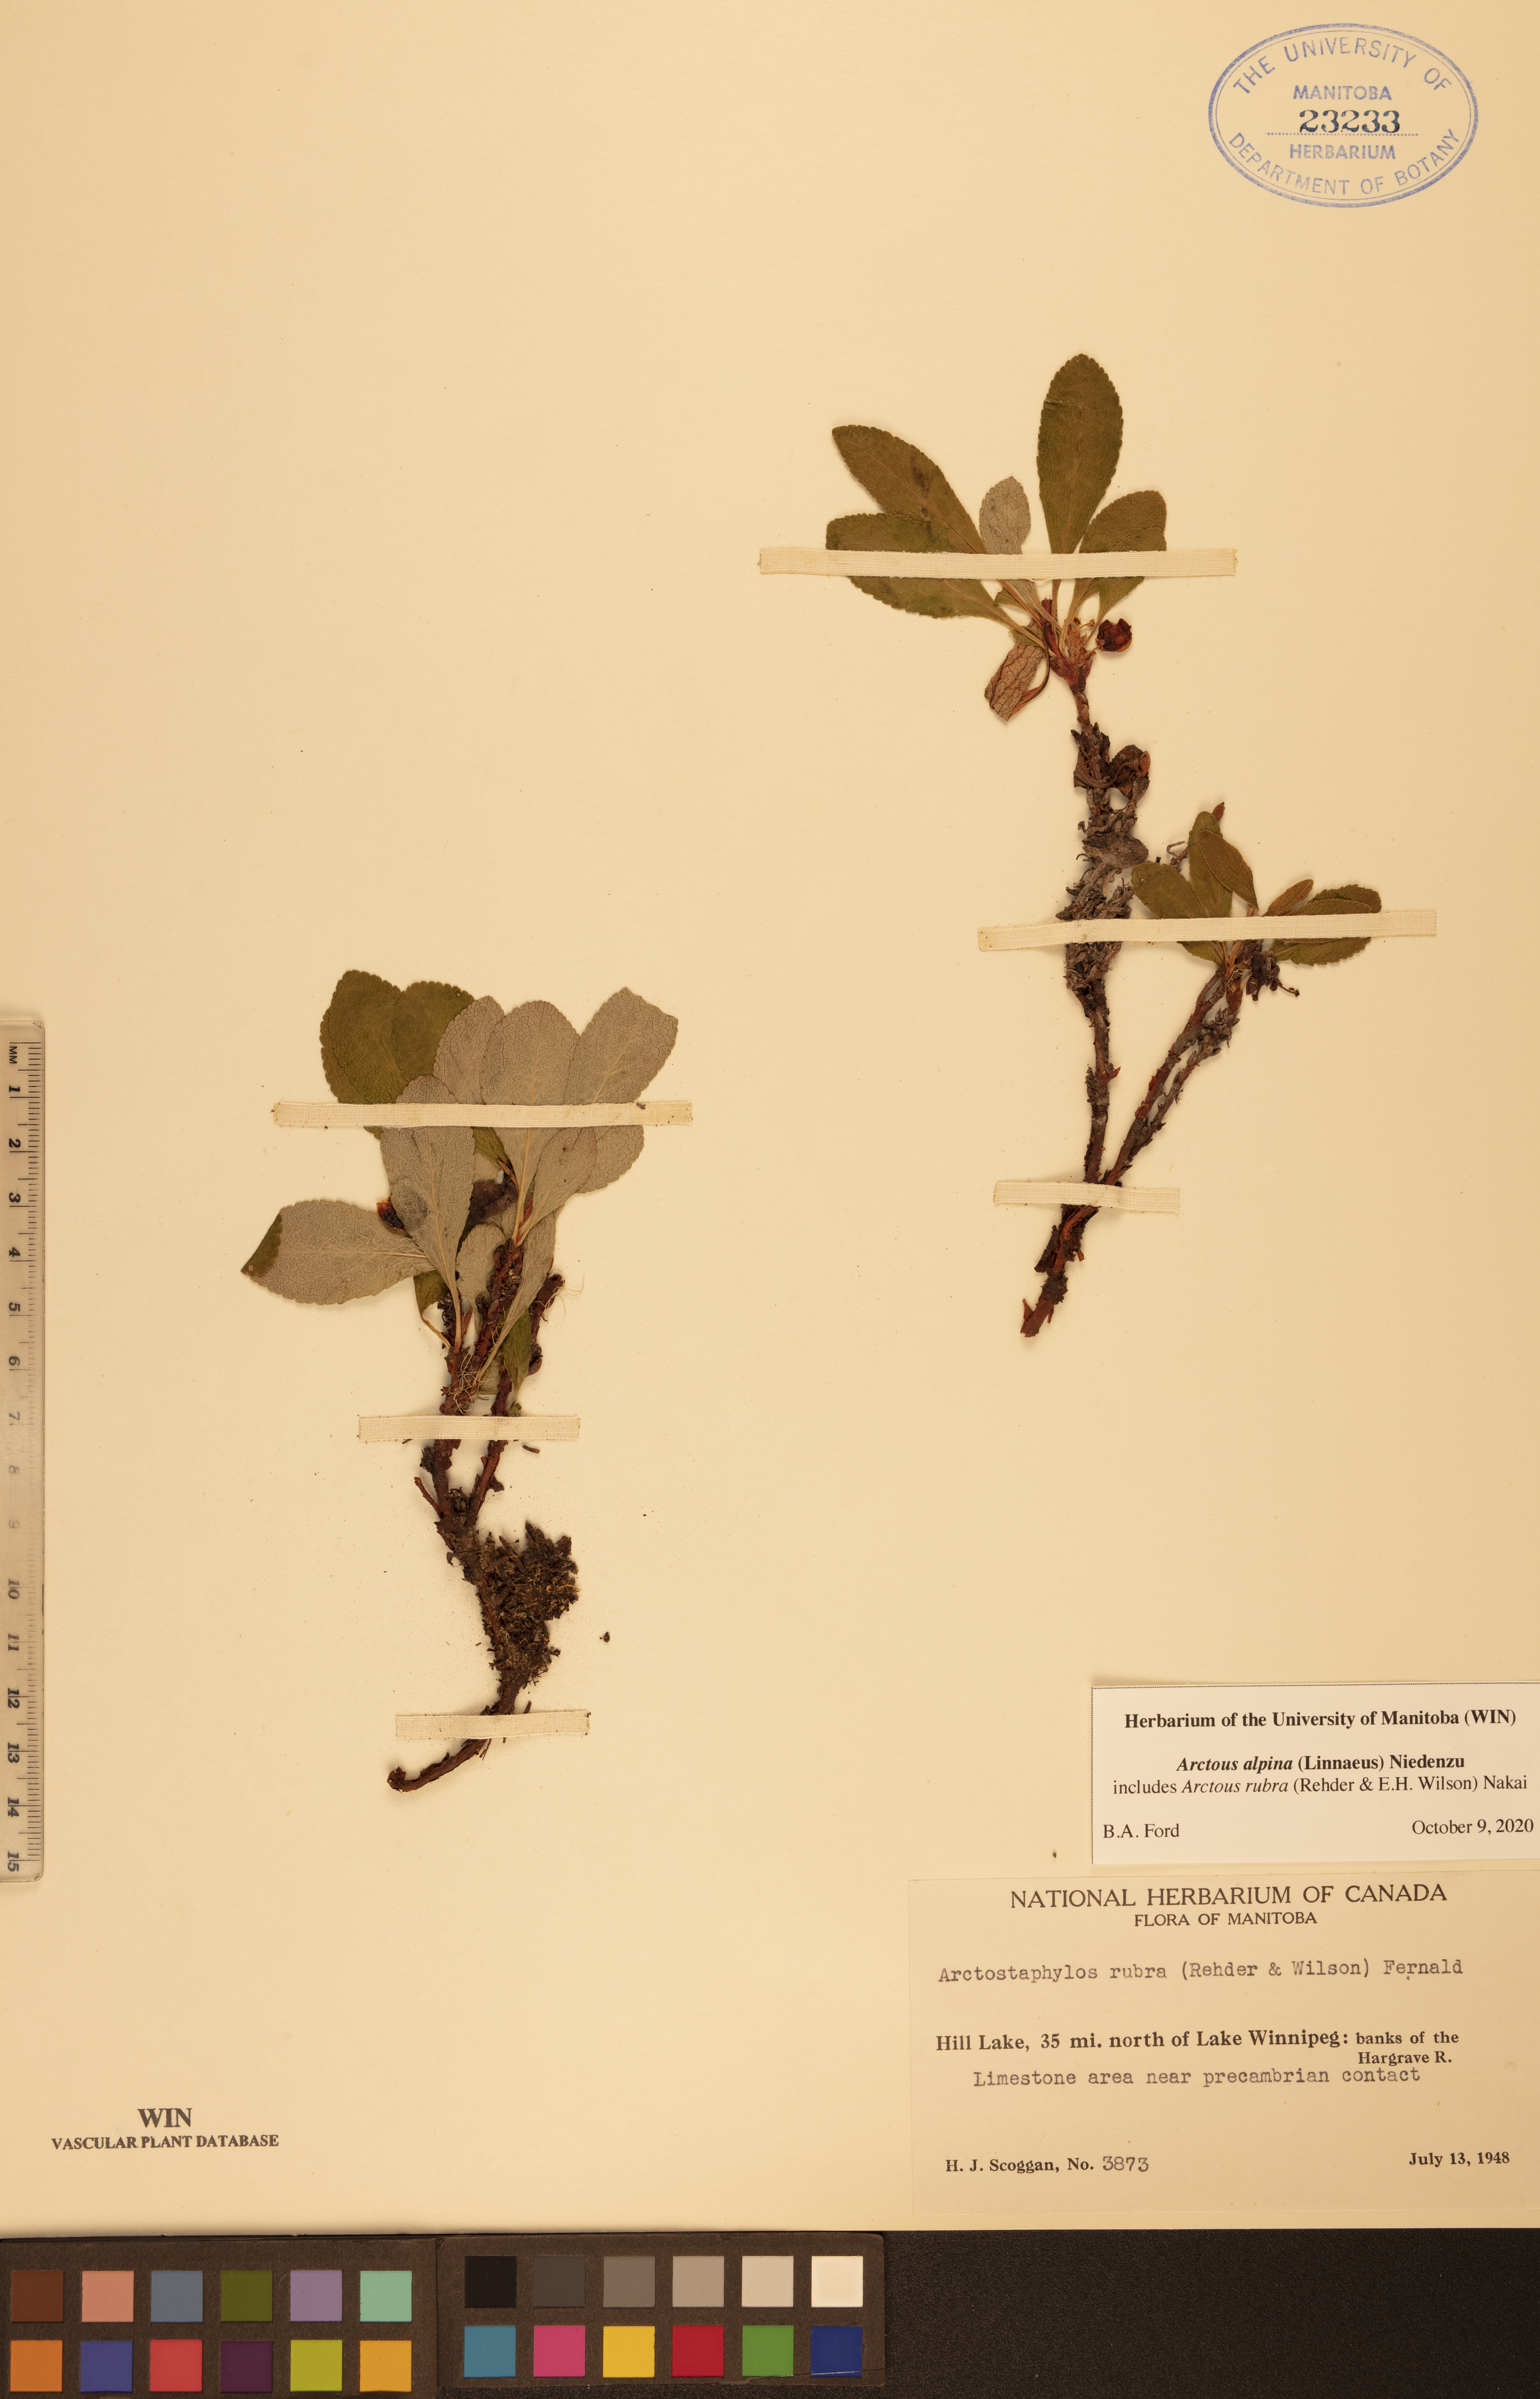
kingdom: Plantae
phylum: Tracheophyta
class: Magnoliopsida
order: Ericales
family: Ericaceae
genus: Arctostaphylos
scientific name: Arctostaphylos alpinus
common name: Alpine bearberry
